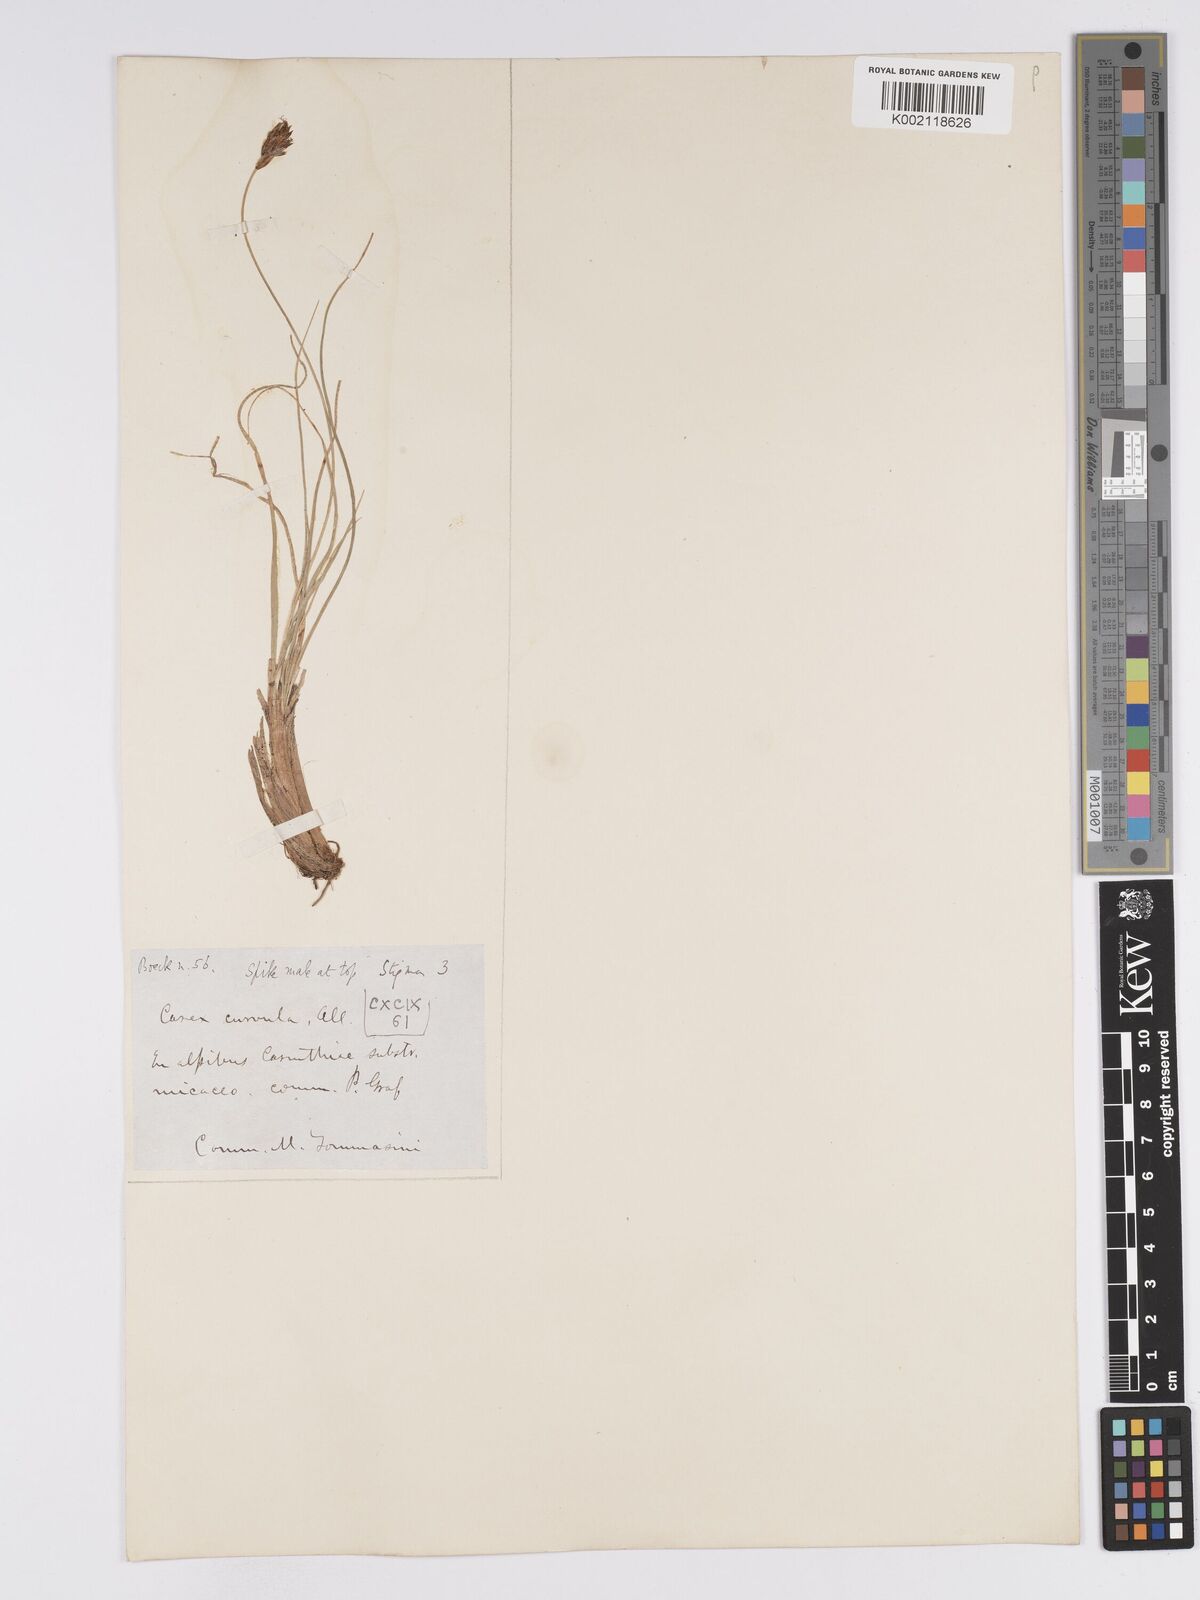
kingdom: Plantae
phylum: Tracheophyta
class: Liliopsida
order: Poales
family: Cyperaceae
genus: Carex
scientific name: Carex curvula
